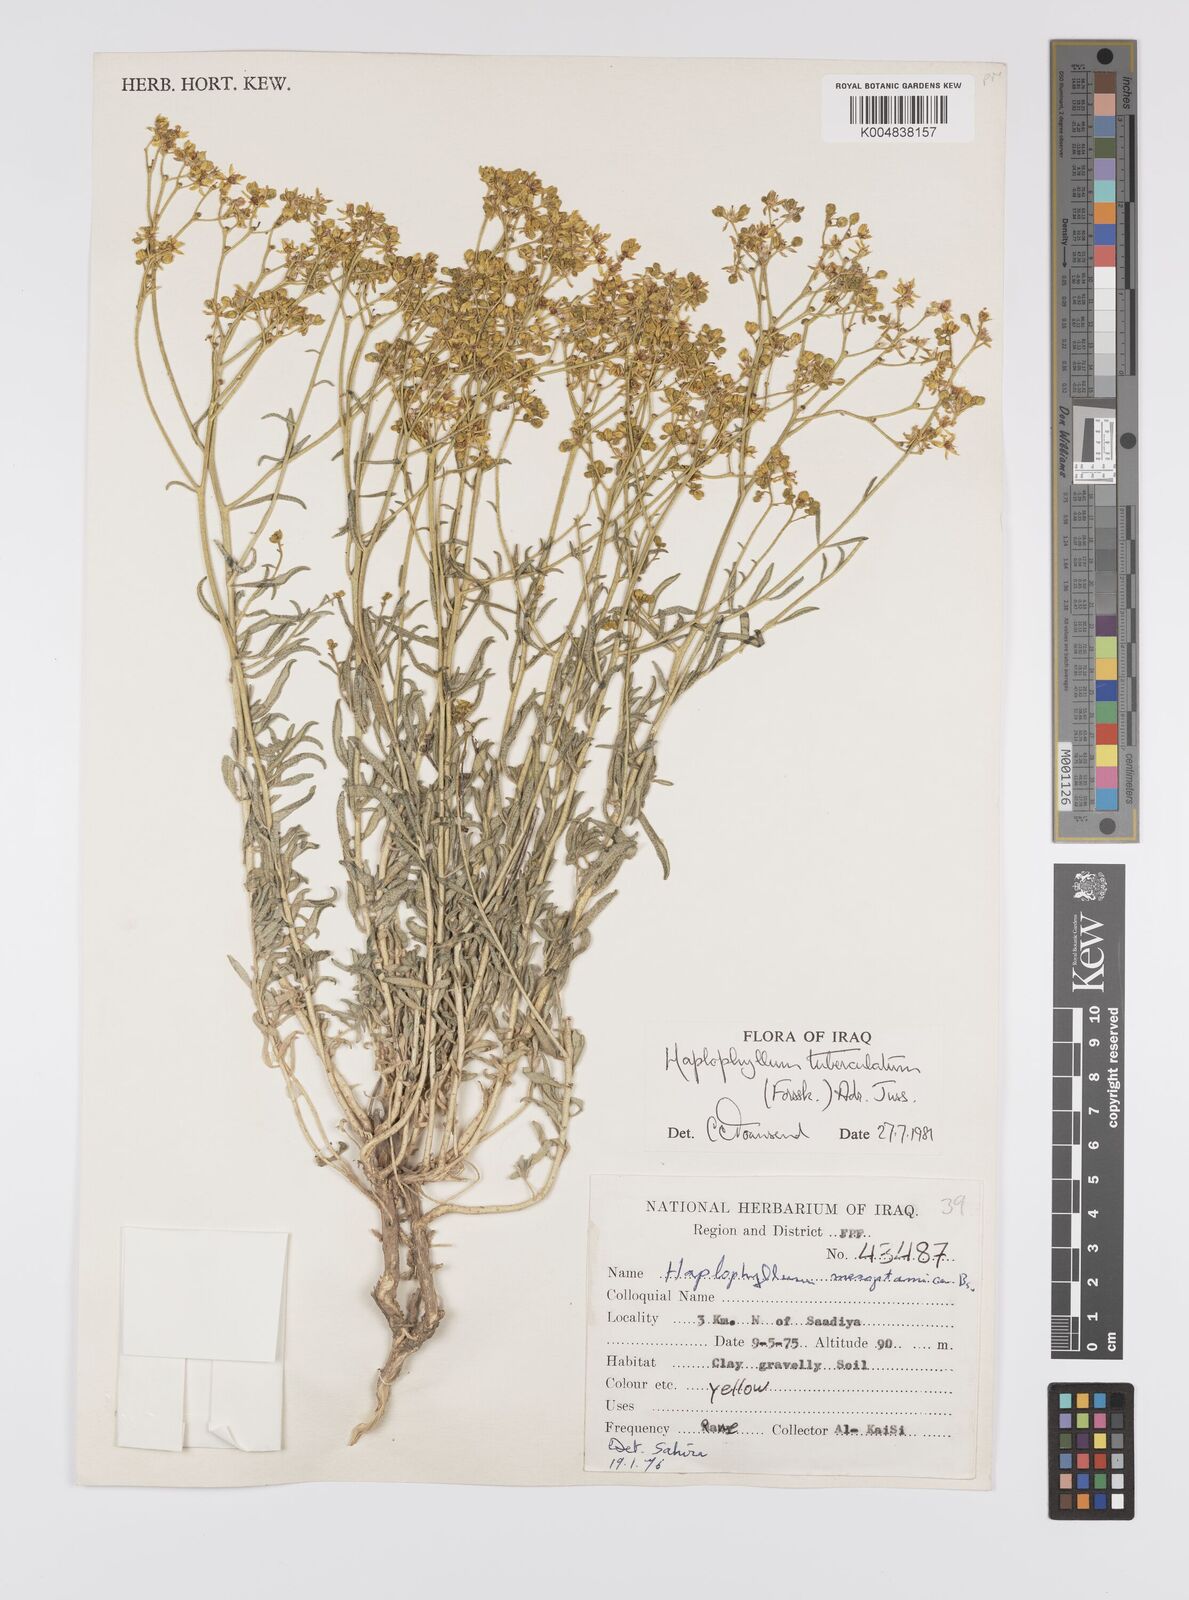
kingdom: Plantae
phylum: Tracheophyta
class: Magnoliopsida
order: Sapindales
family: Rutaceae
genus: Haplophyllum
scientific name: Haplophyllum tuberculatum
